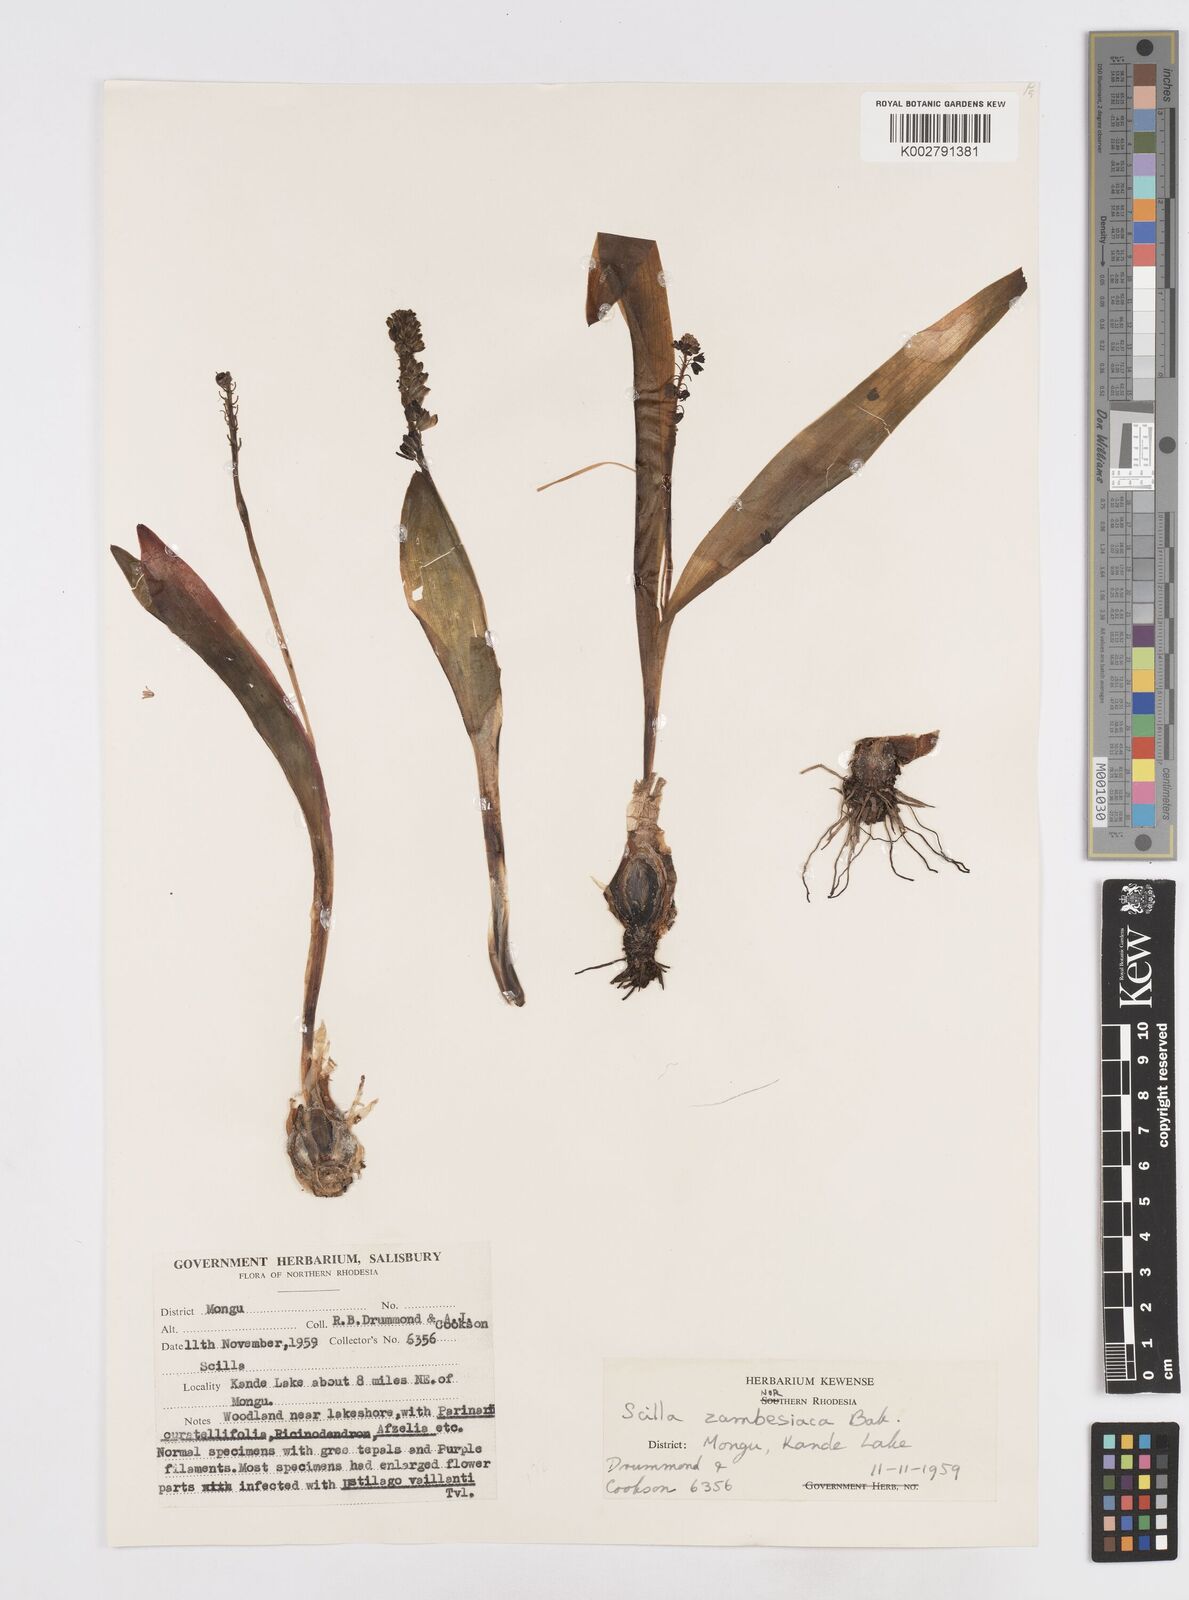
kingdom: Plantae
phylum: Tracheophyta
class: Liliopsida
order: Asparagales
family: Asparagaceae
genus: Ledebouria
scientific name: Ledebouria zambesiaca
